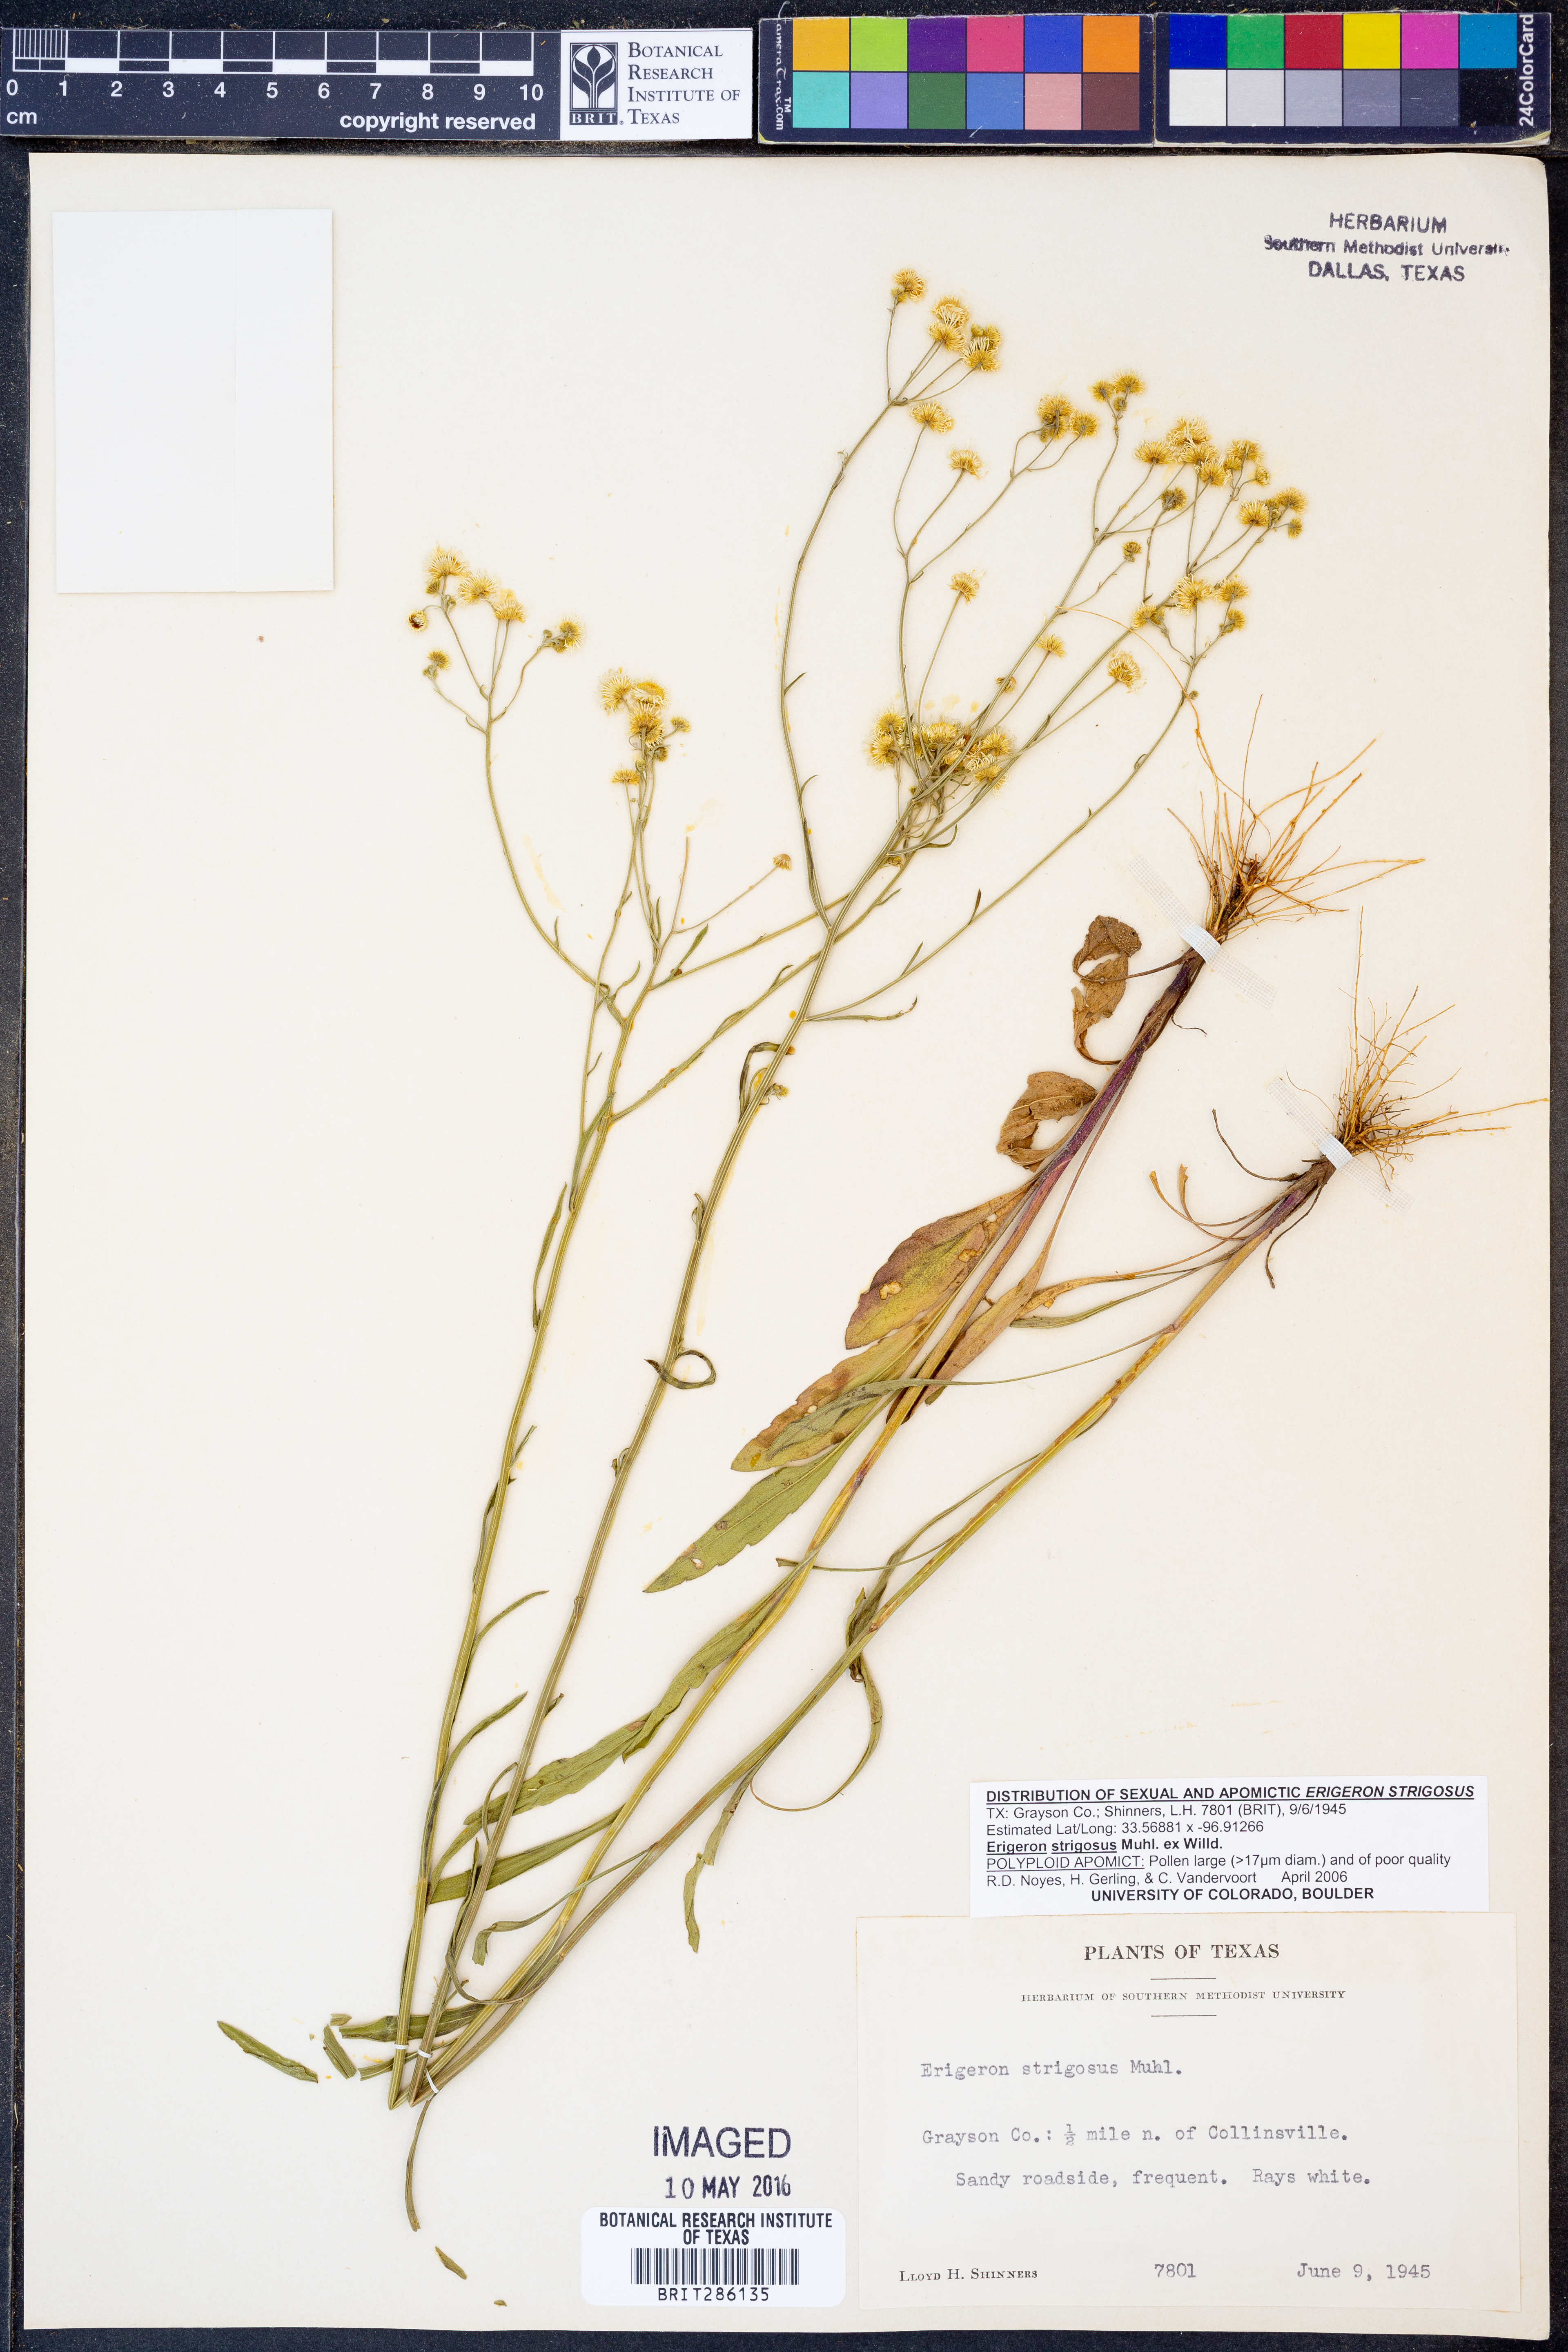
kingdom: Plantae
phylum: Tracheophyta
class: Magnoliopsida
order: Asterales
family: Asteraceae
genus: Erigeron
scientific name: Erigeron strigosus
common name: Common eastern fleabane
